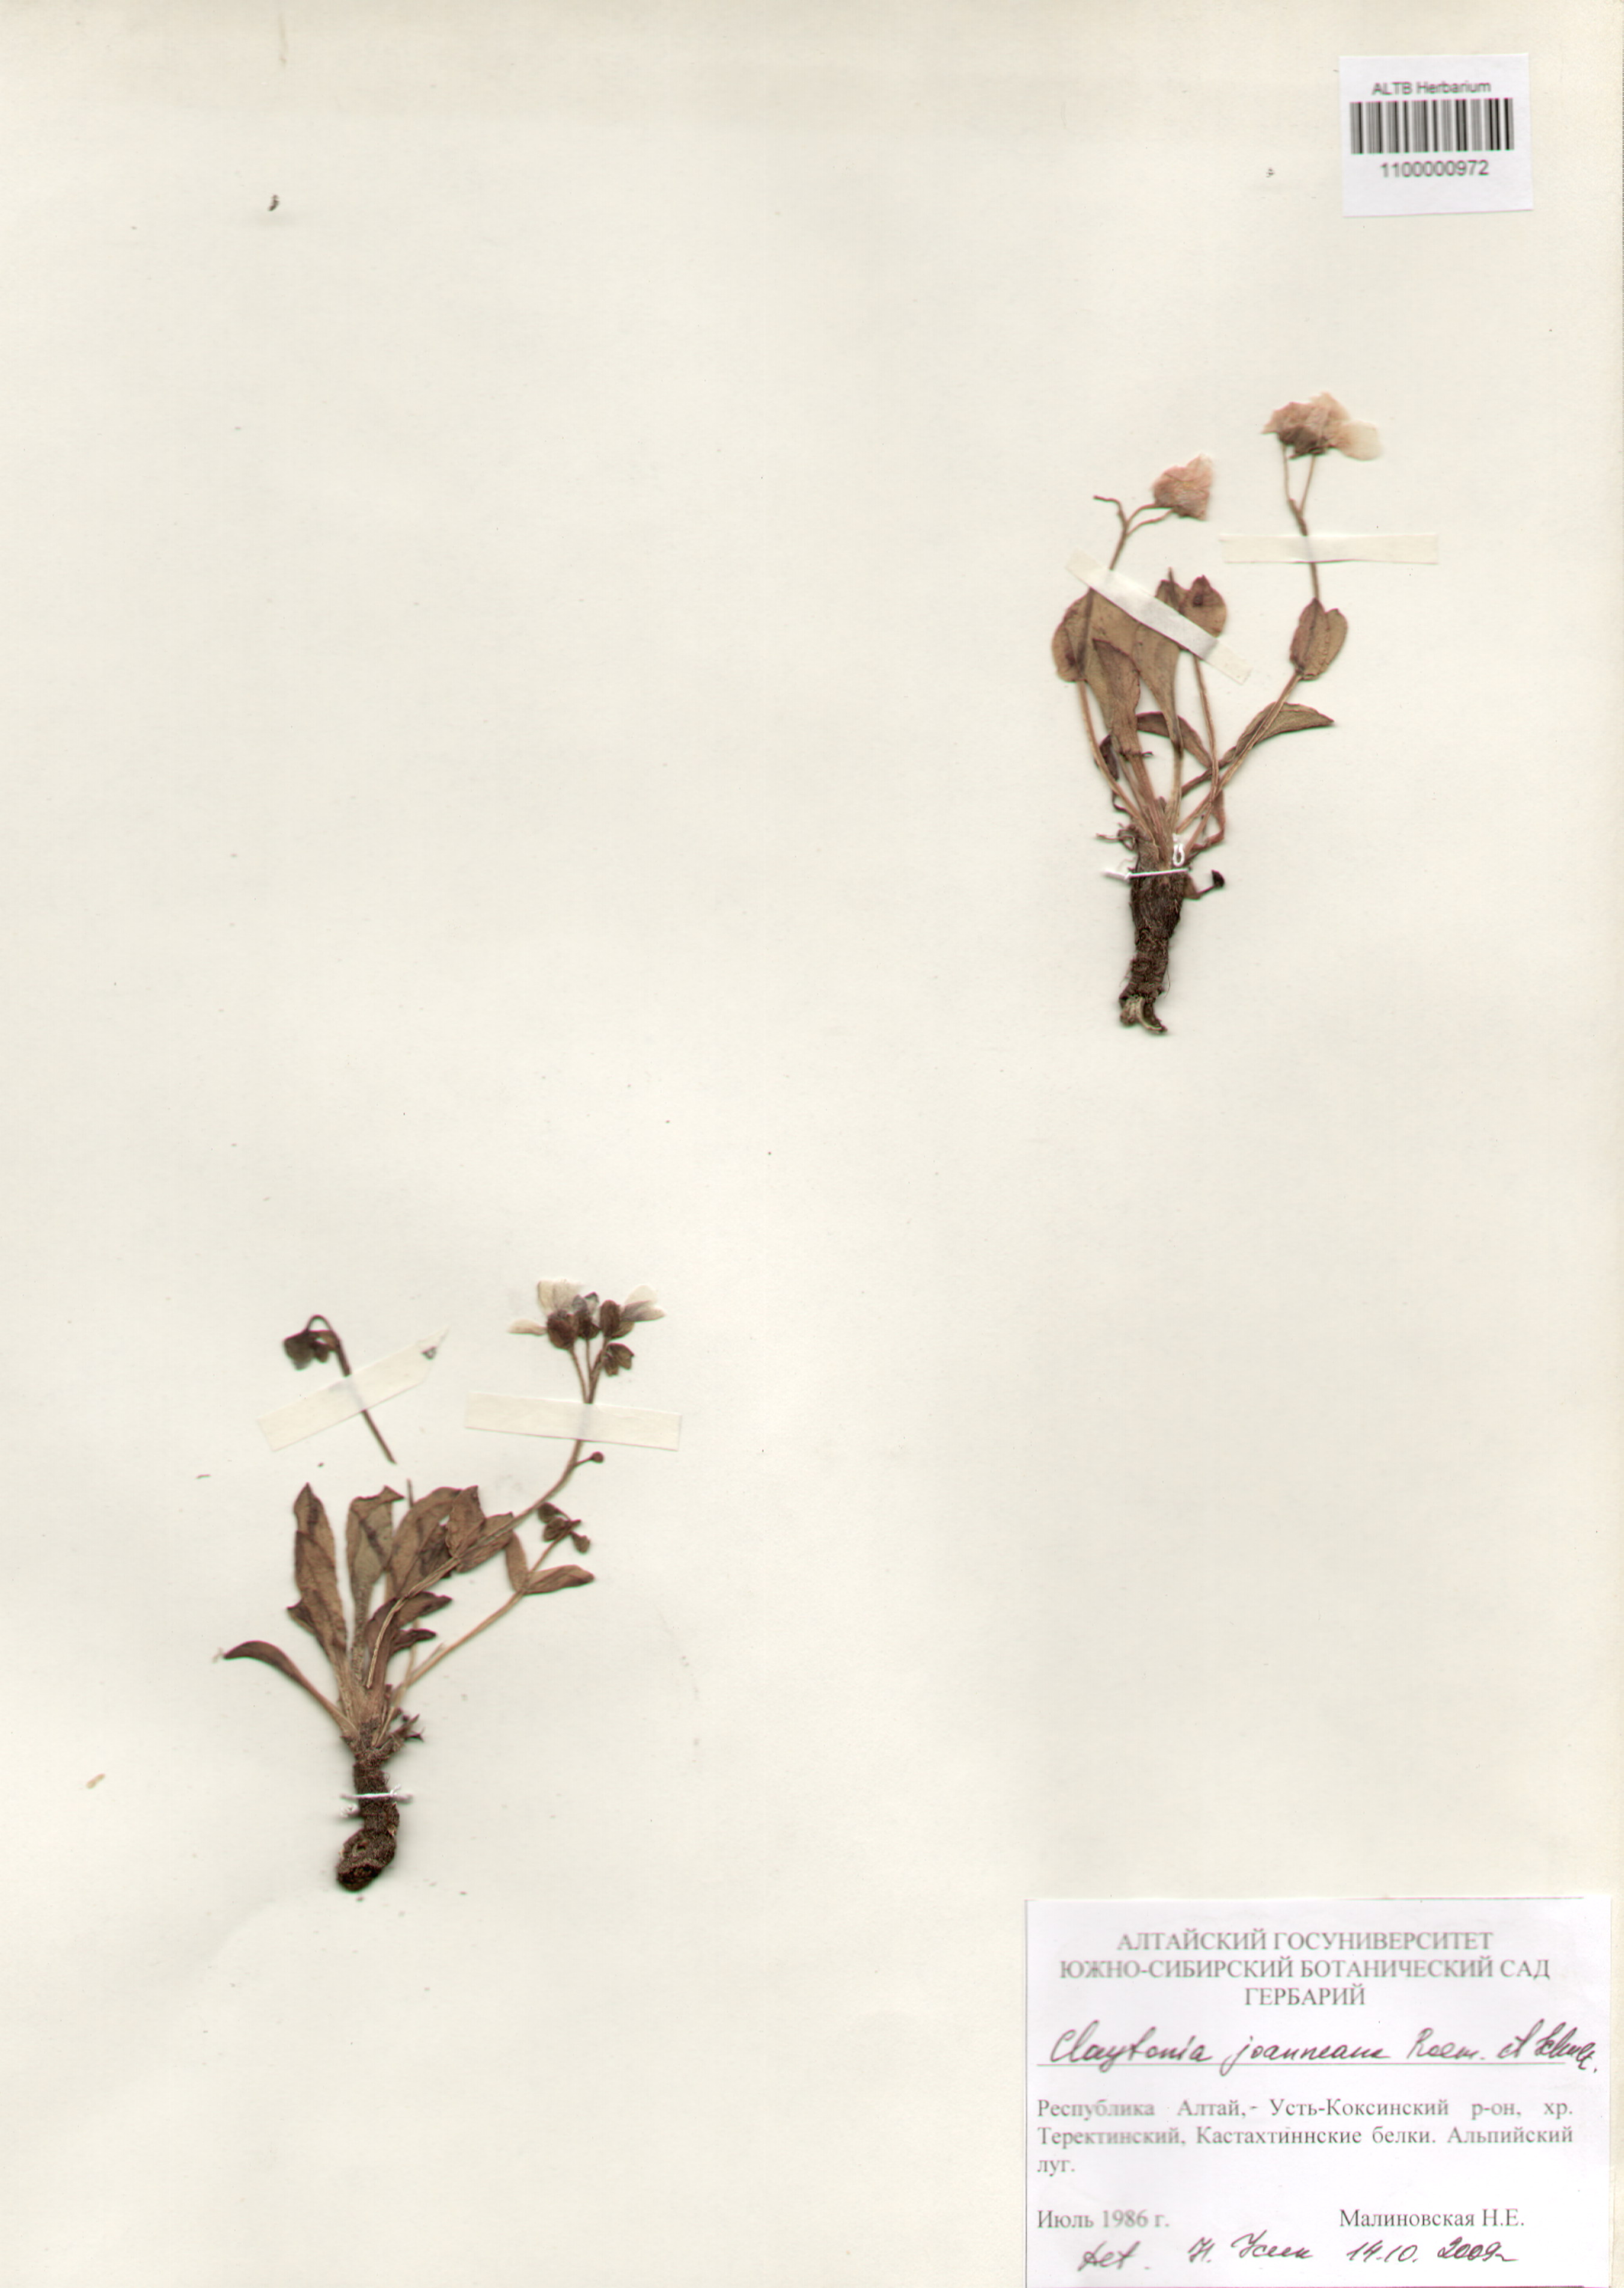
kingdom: Plantae
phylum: Tracheophyta
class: Magnoliopsida
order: Caryophyllales
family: Montiaceae
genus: Claytonia
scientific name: Claytonia joanneana
